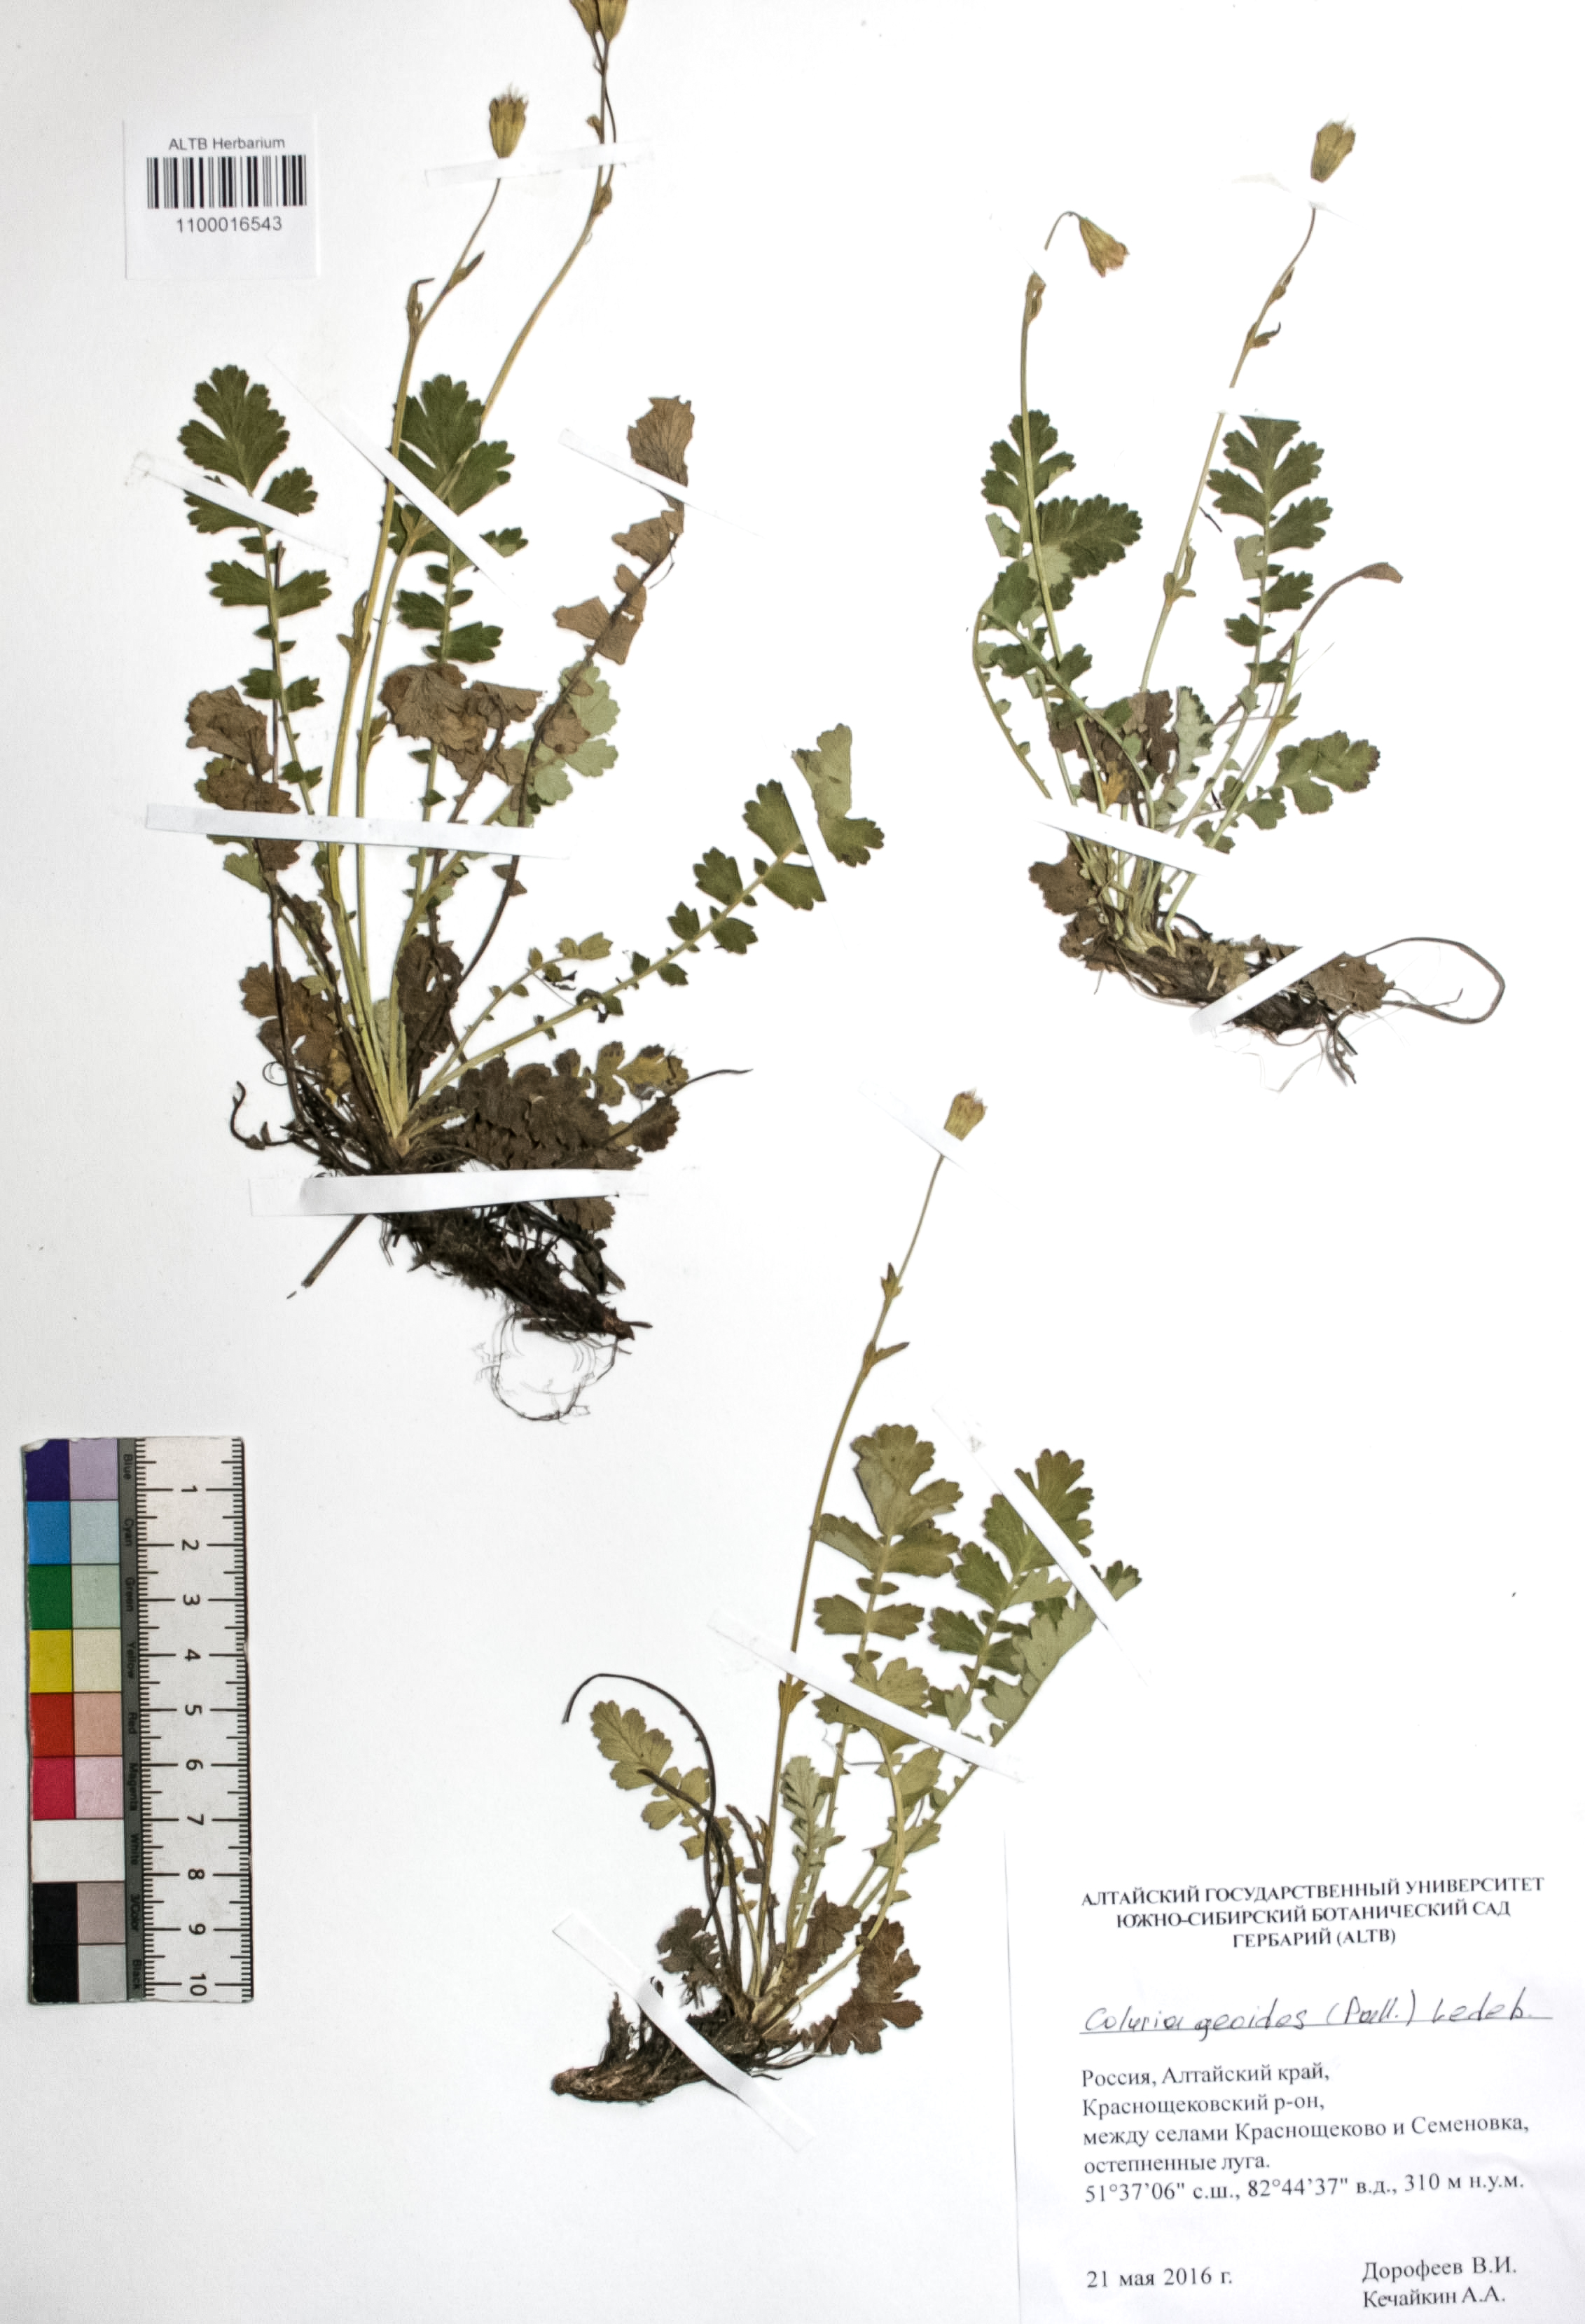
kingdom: Plantae
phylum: Tracheophyta
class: Magnoliopsida
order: Rosales
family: Rosaceae
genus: Geum
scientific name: Geum geoides
